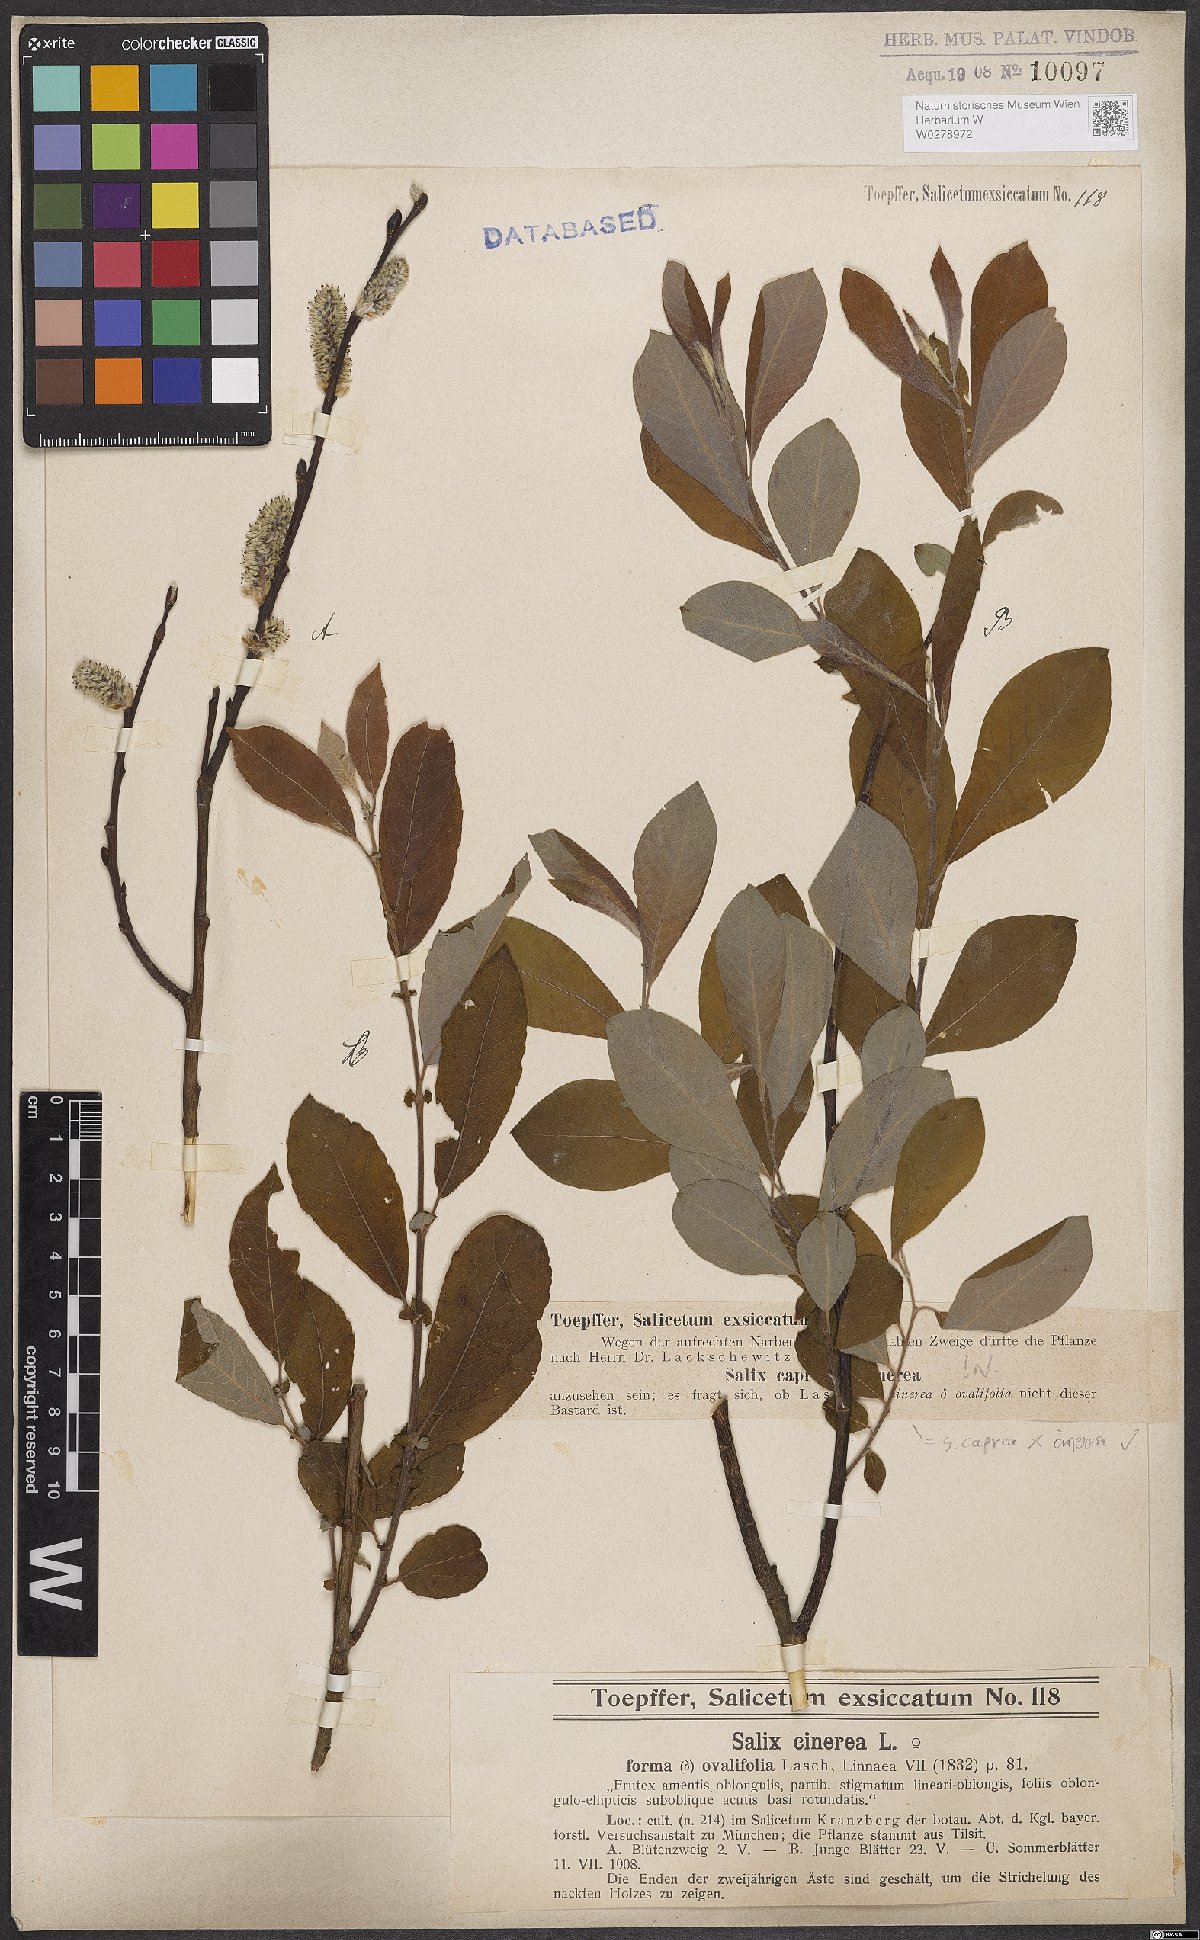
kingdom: Plantae
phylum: Tracheophyta
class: Magnoliopsida
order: Malpighiales
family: Salicaceae
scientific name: Salicaceae
